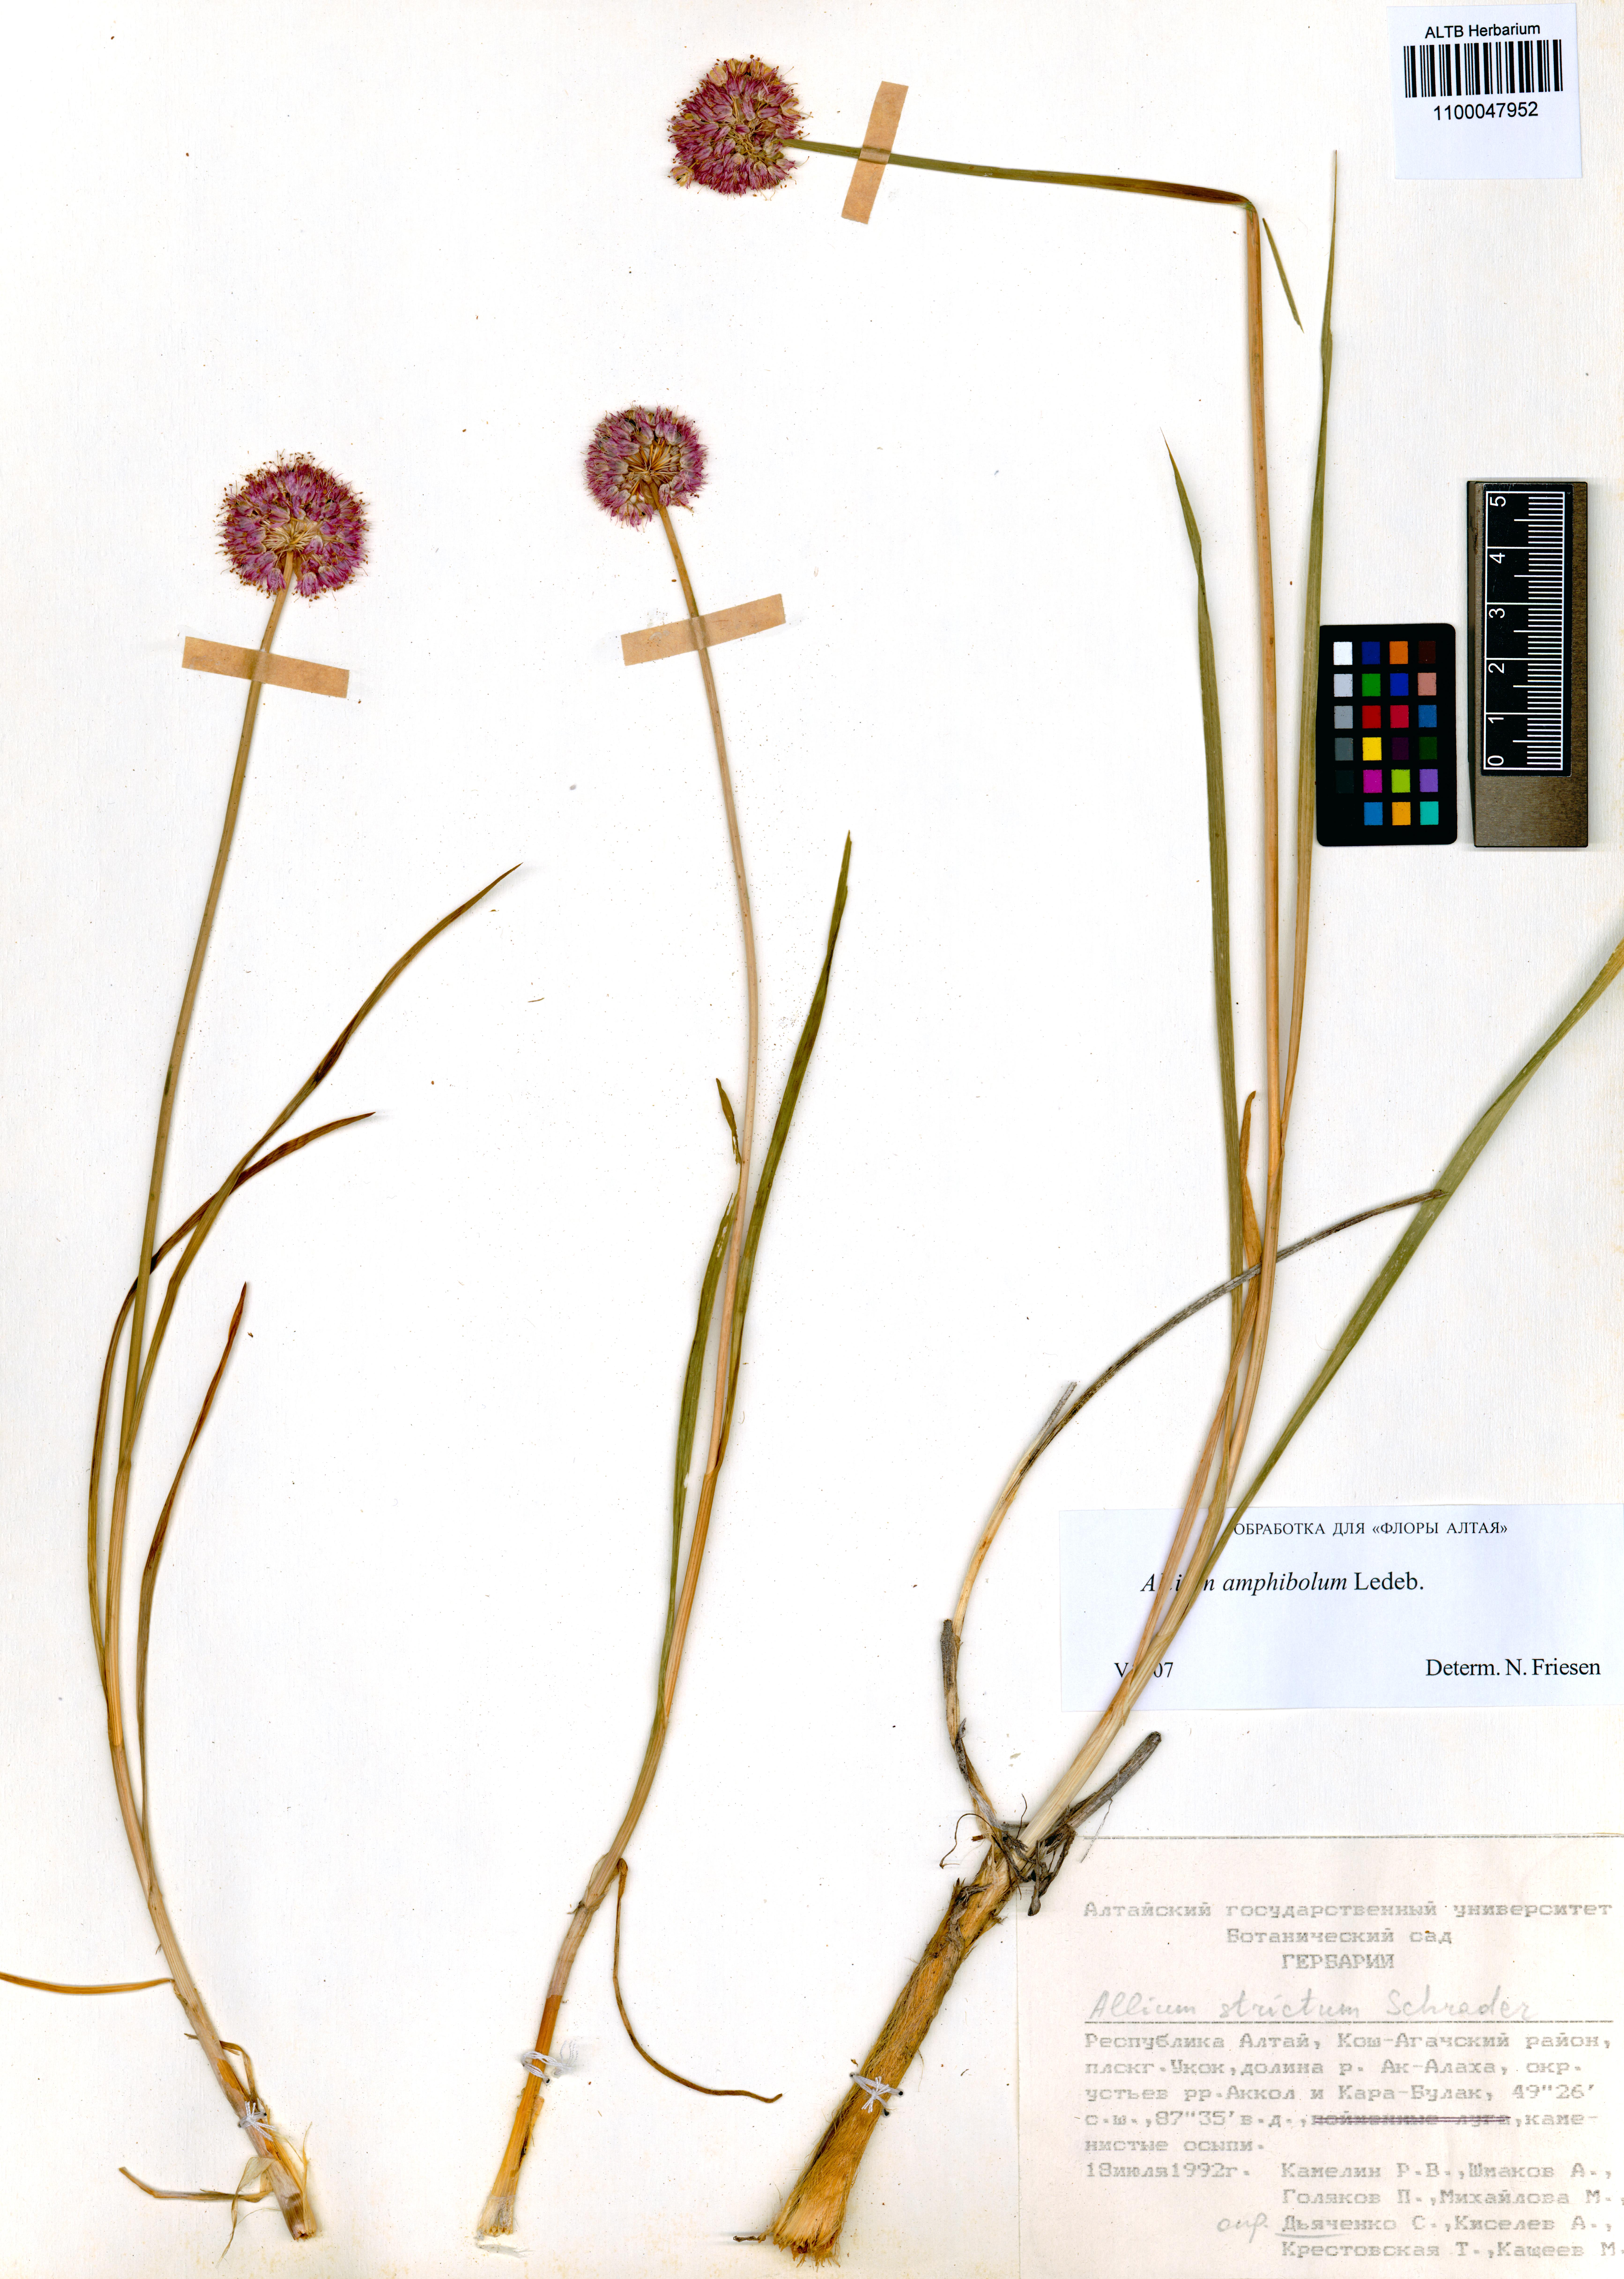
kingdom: Plantae
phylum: Tracheophyta
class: Liliopsida
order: Asparagales
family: Amaryllidaceae
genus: Allium
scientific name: Allium amphibolum
